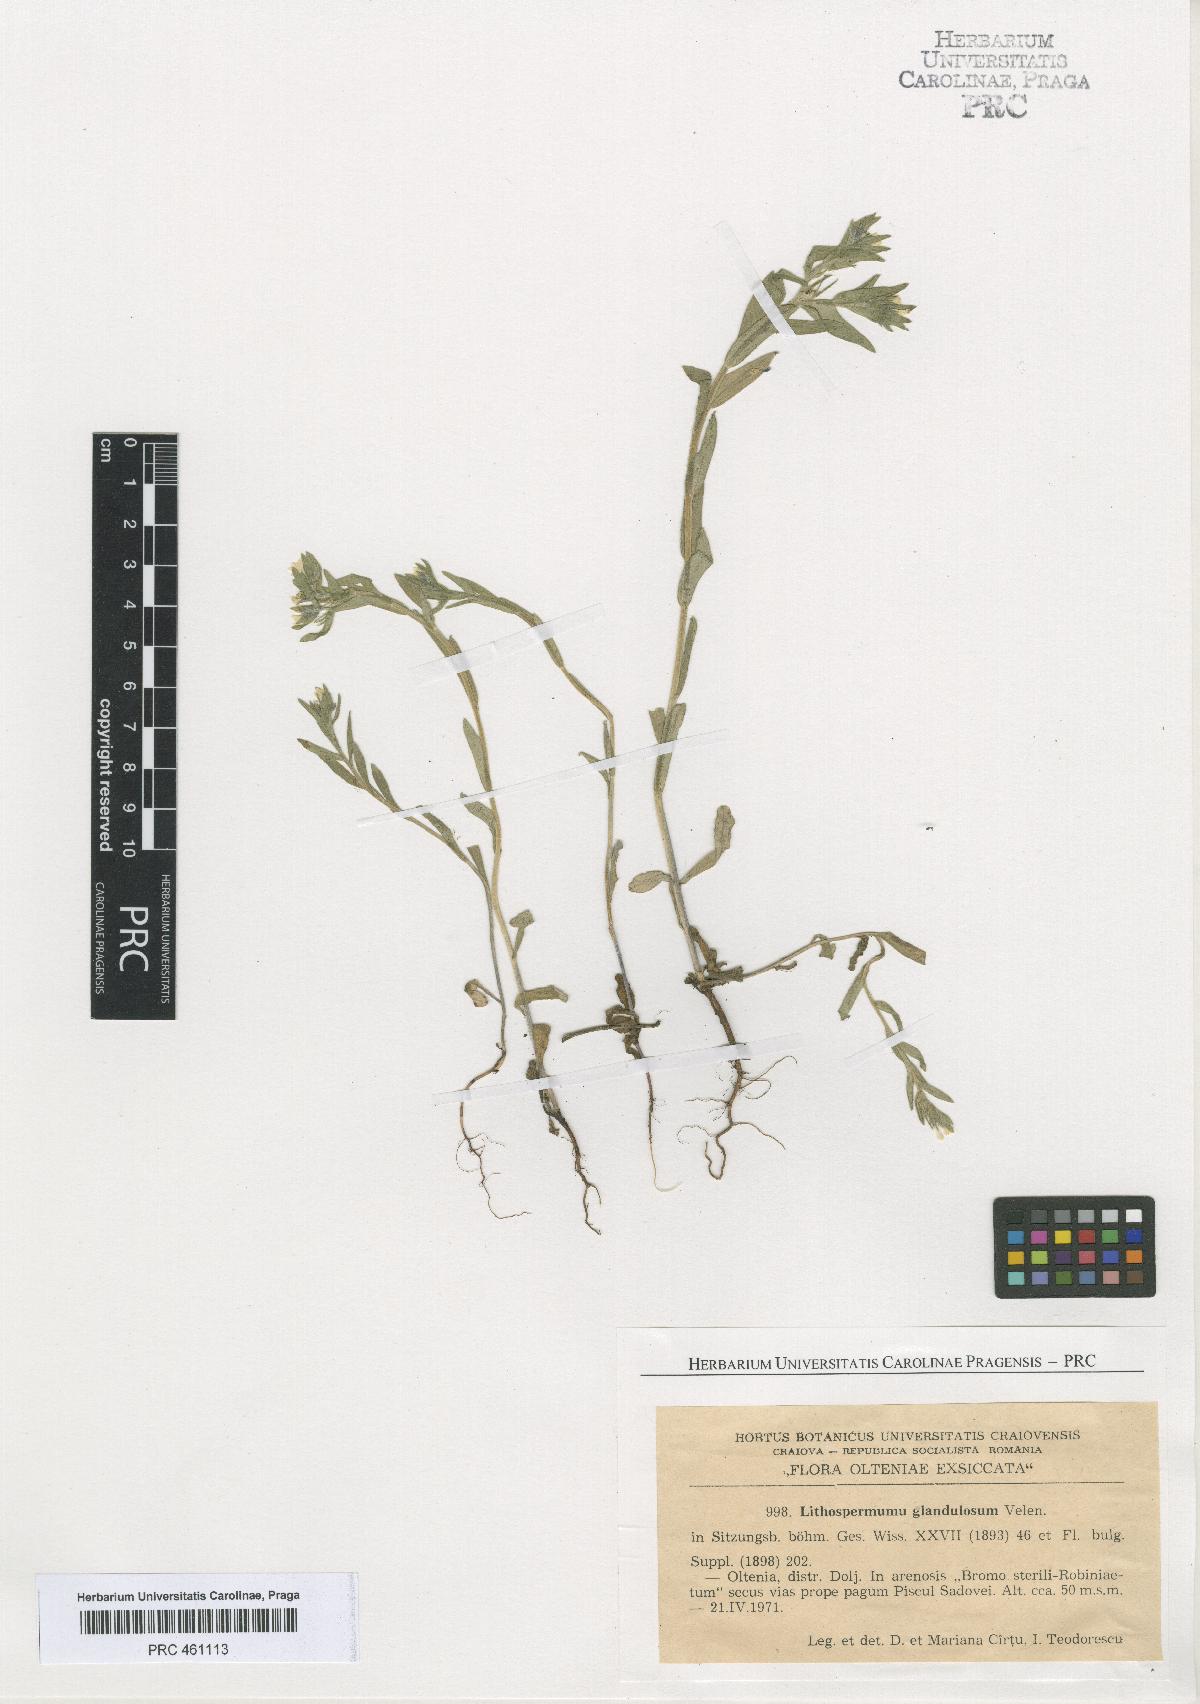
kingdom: Plantae
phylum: Tracheophyta
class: Magnoliopsida
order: Boraginales
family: Boraginaceae
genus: Buglossoides
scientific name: Buglossoides glandulosa
